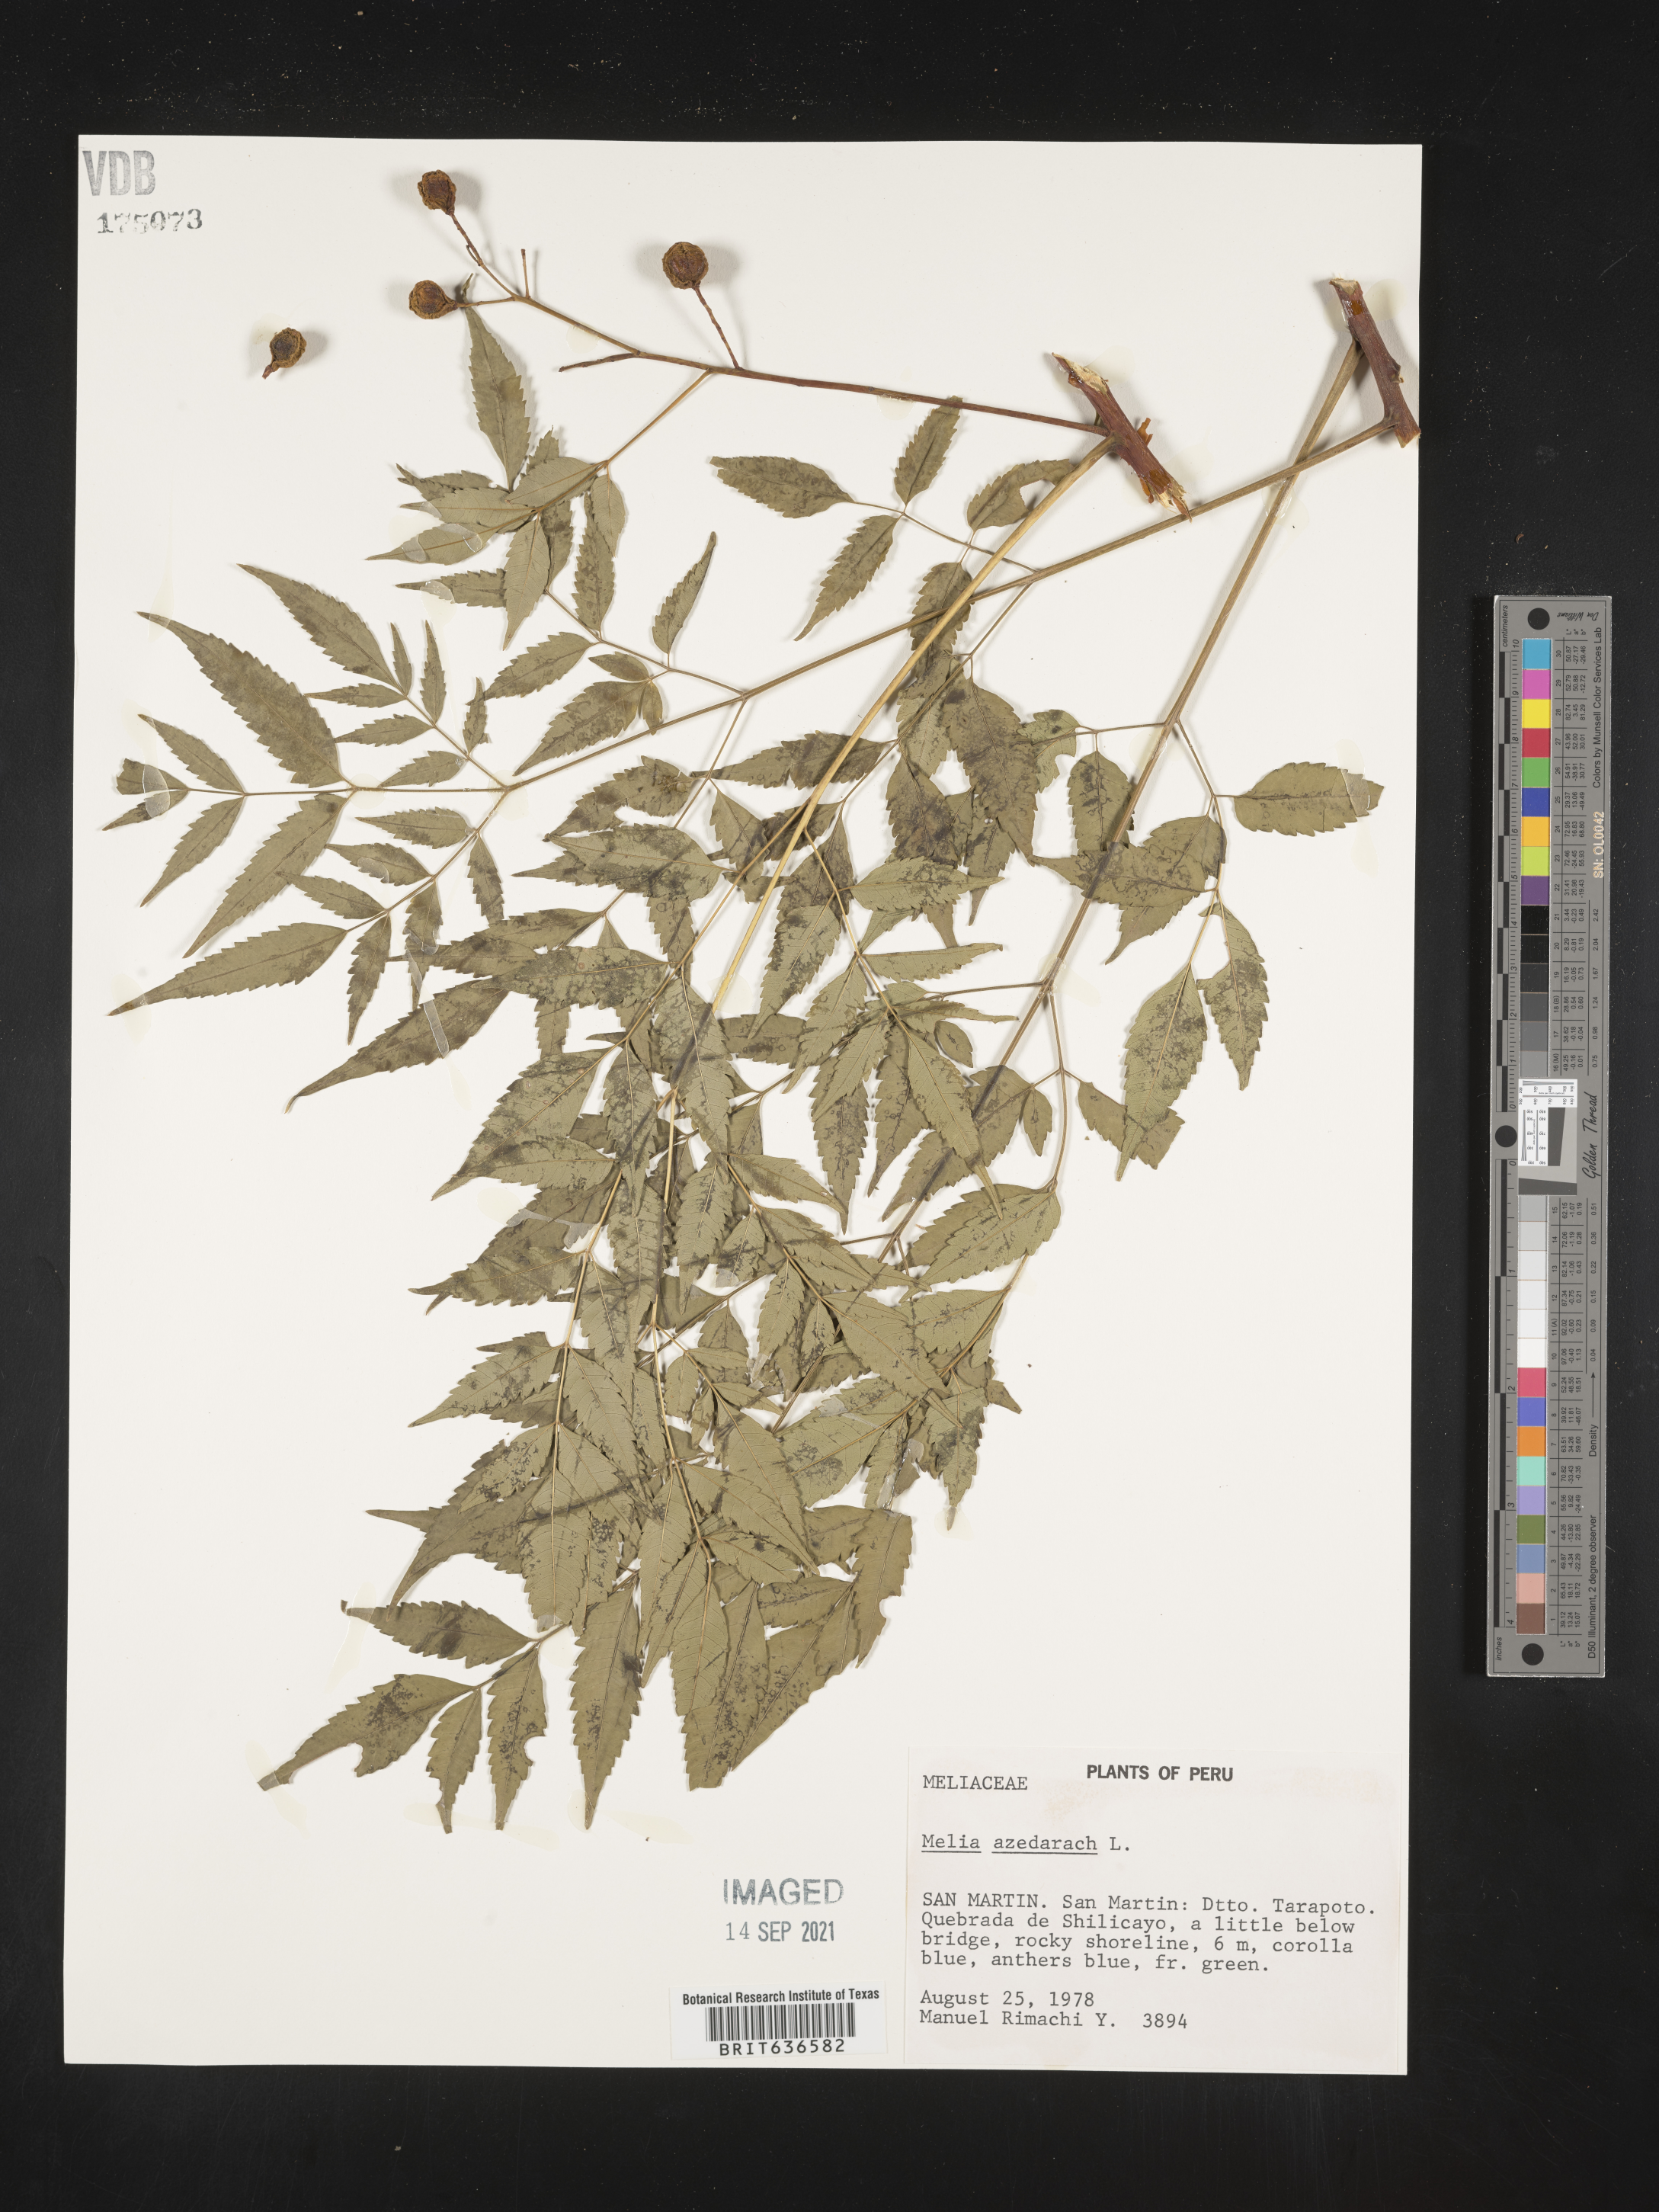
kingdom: Plantae
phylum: Tracheophyta
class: Magnoliopsida
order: Sapindales
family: Meliaceae
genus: Melia
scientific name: Melia azedarach
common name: Chinaberrytree
